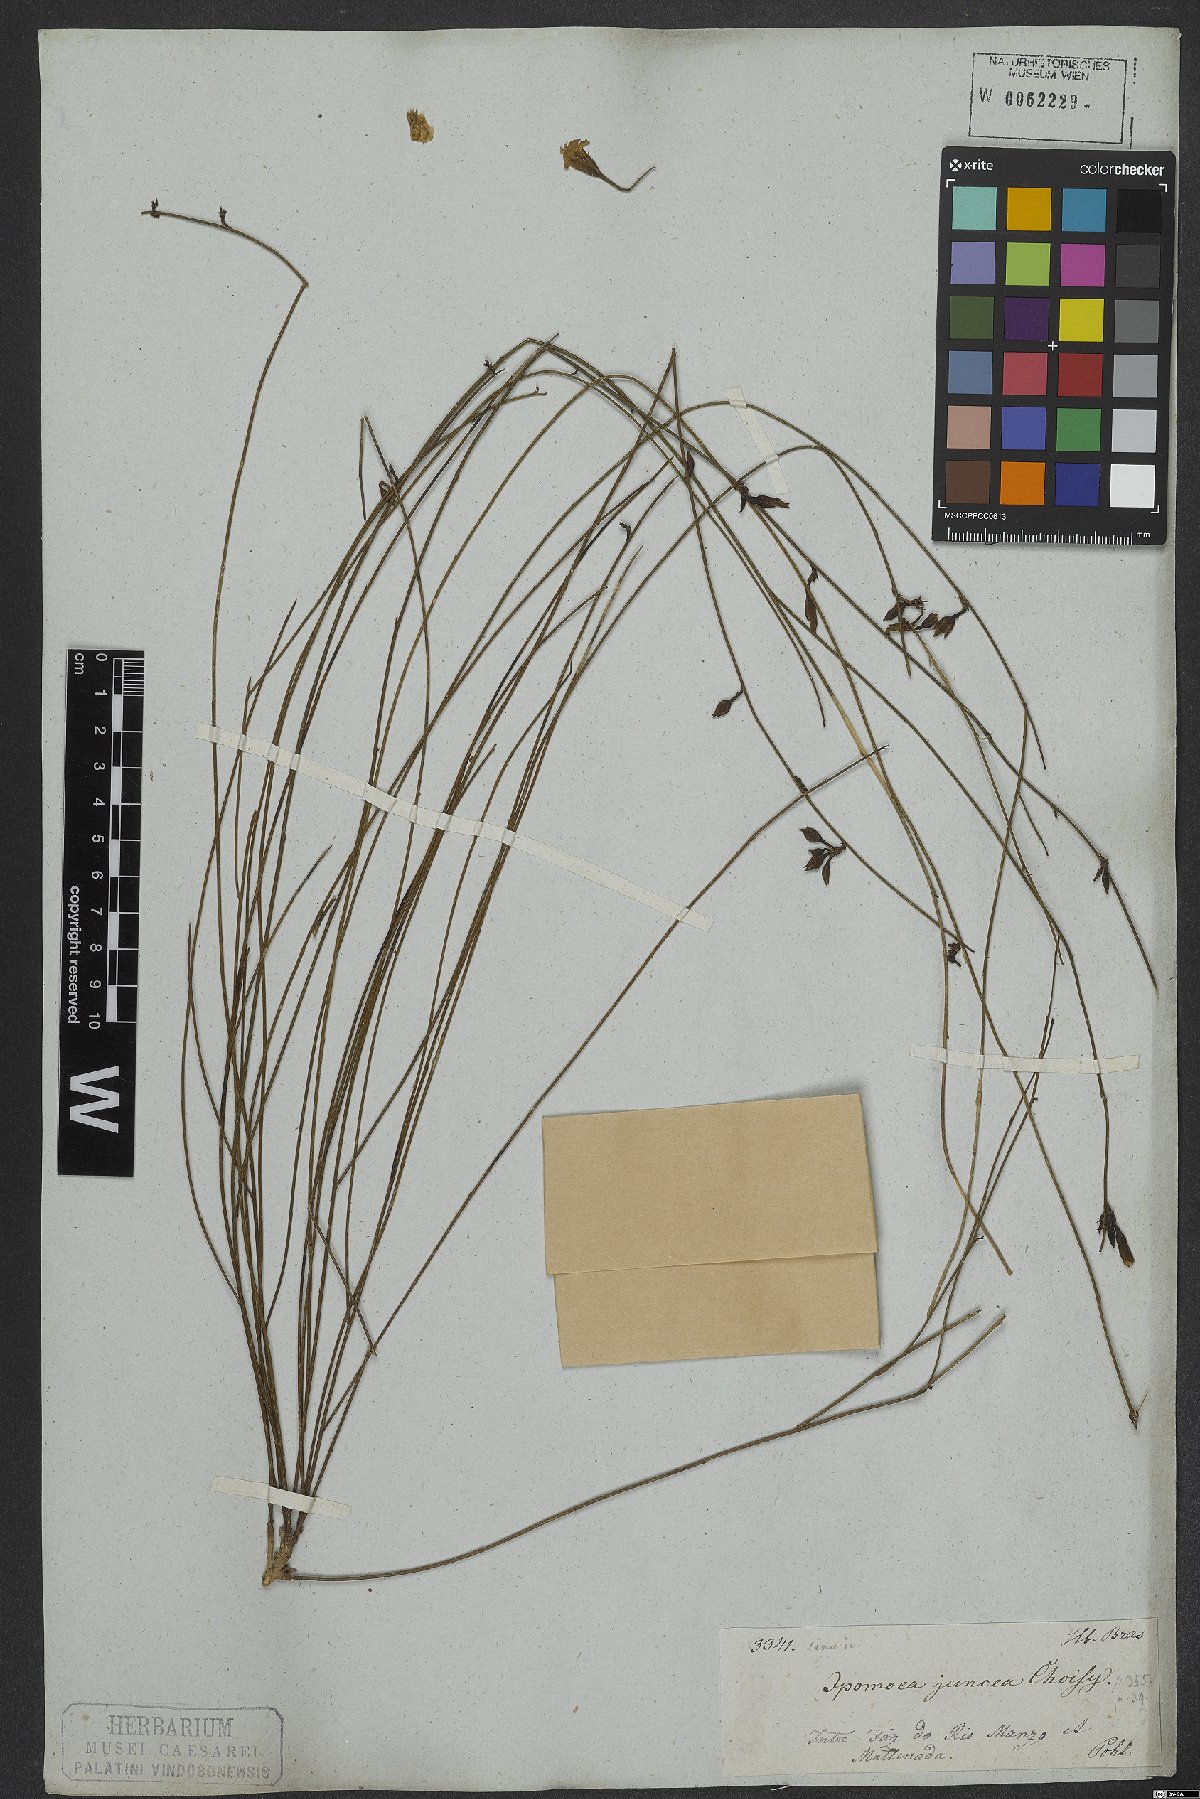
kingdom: Plantae
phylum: Tracheophyta
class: Magnoliopsida
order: Solanales
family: Convolvulaceae
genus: Distimake
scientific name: Distimake aturensis
